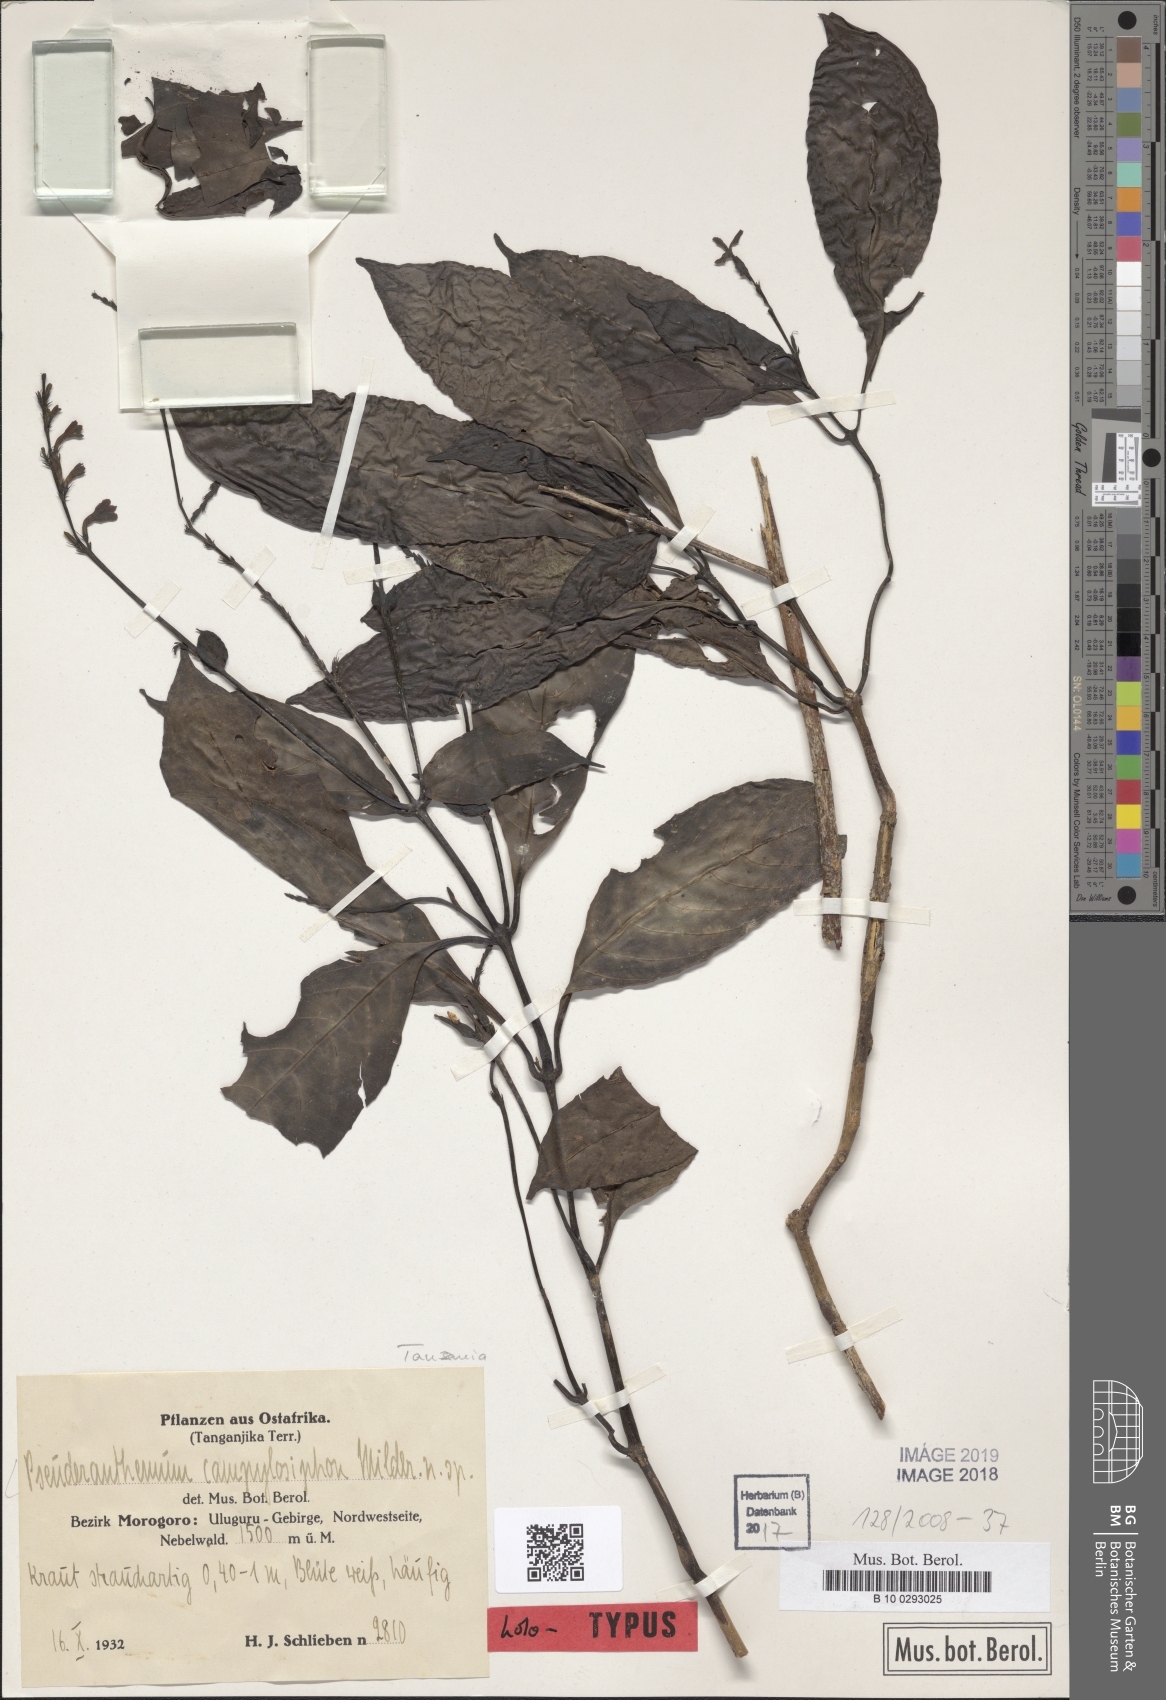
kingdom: Plantae
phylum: Tracheophyta
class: Magnoliopsida
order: Lamiales
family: Acanthaceae
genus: Pseuderanthemum
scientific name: Pseuderanthemum campylosiphon
